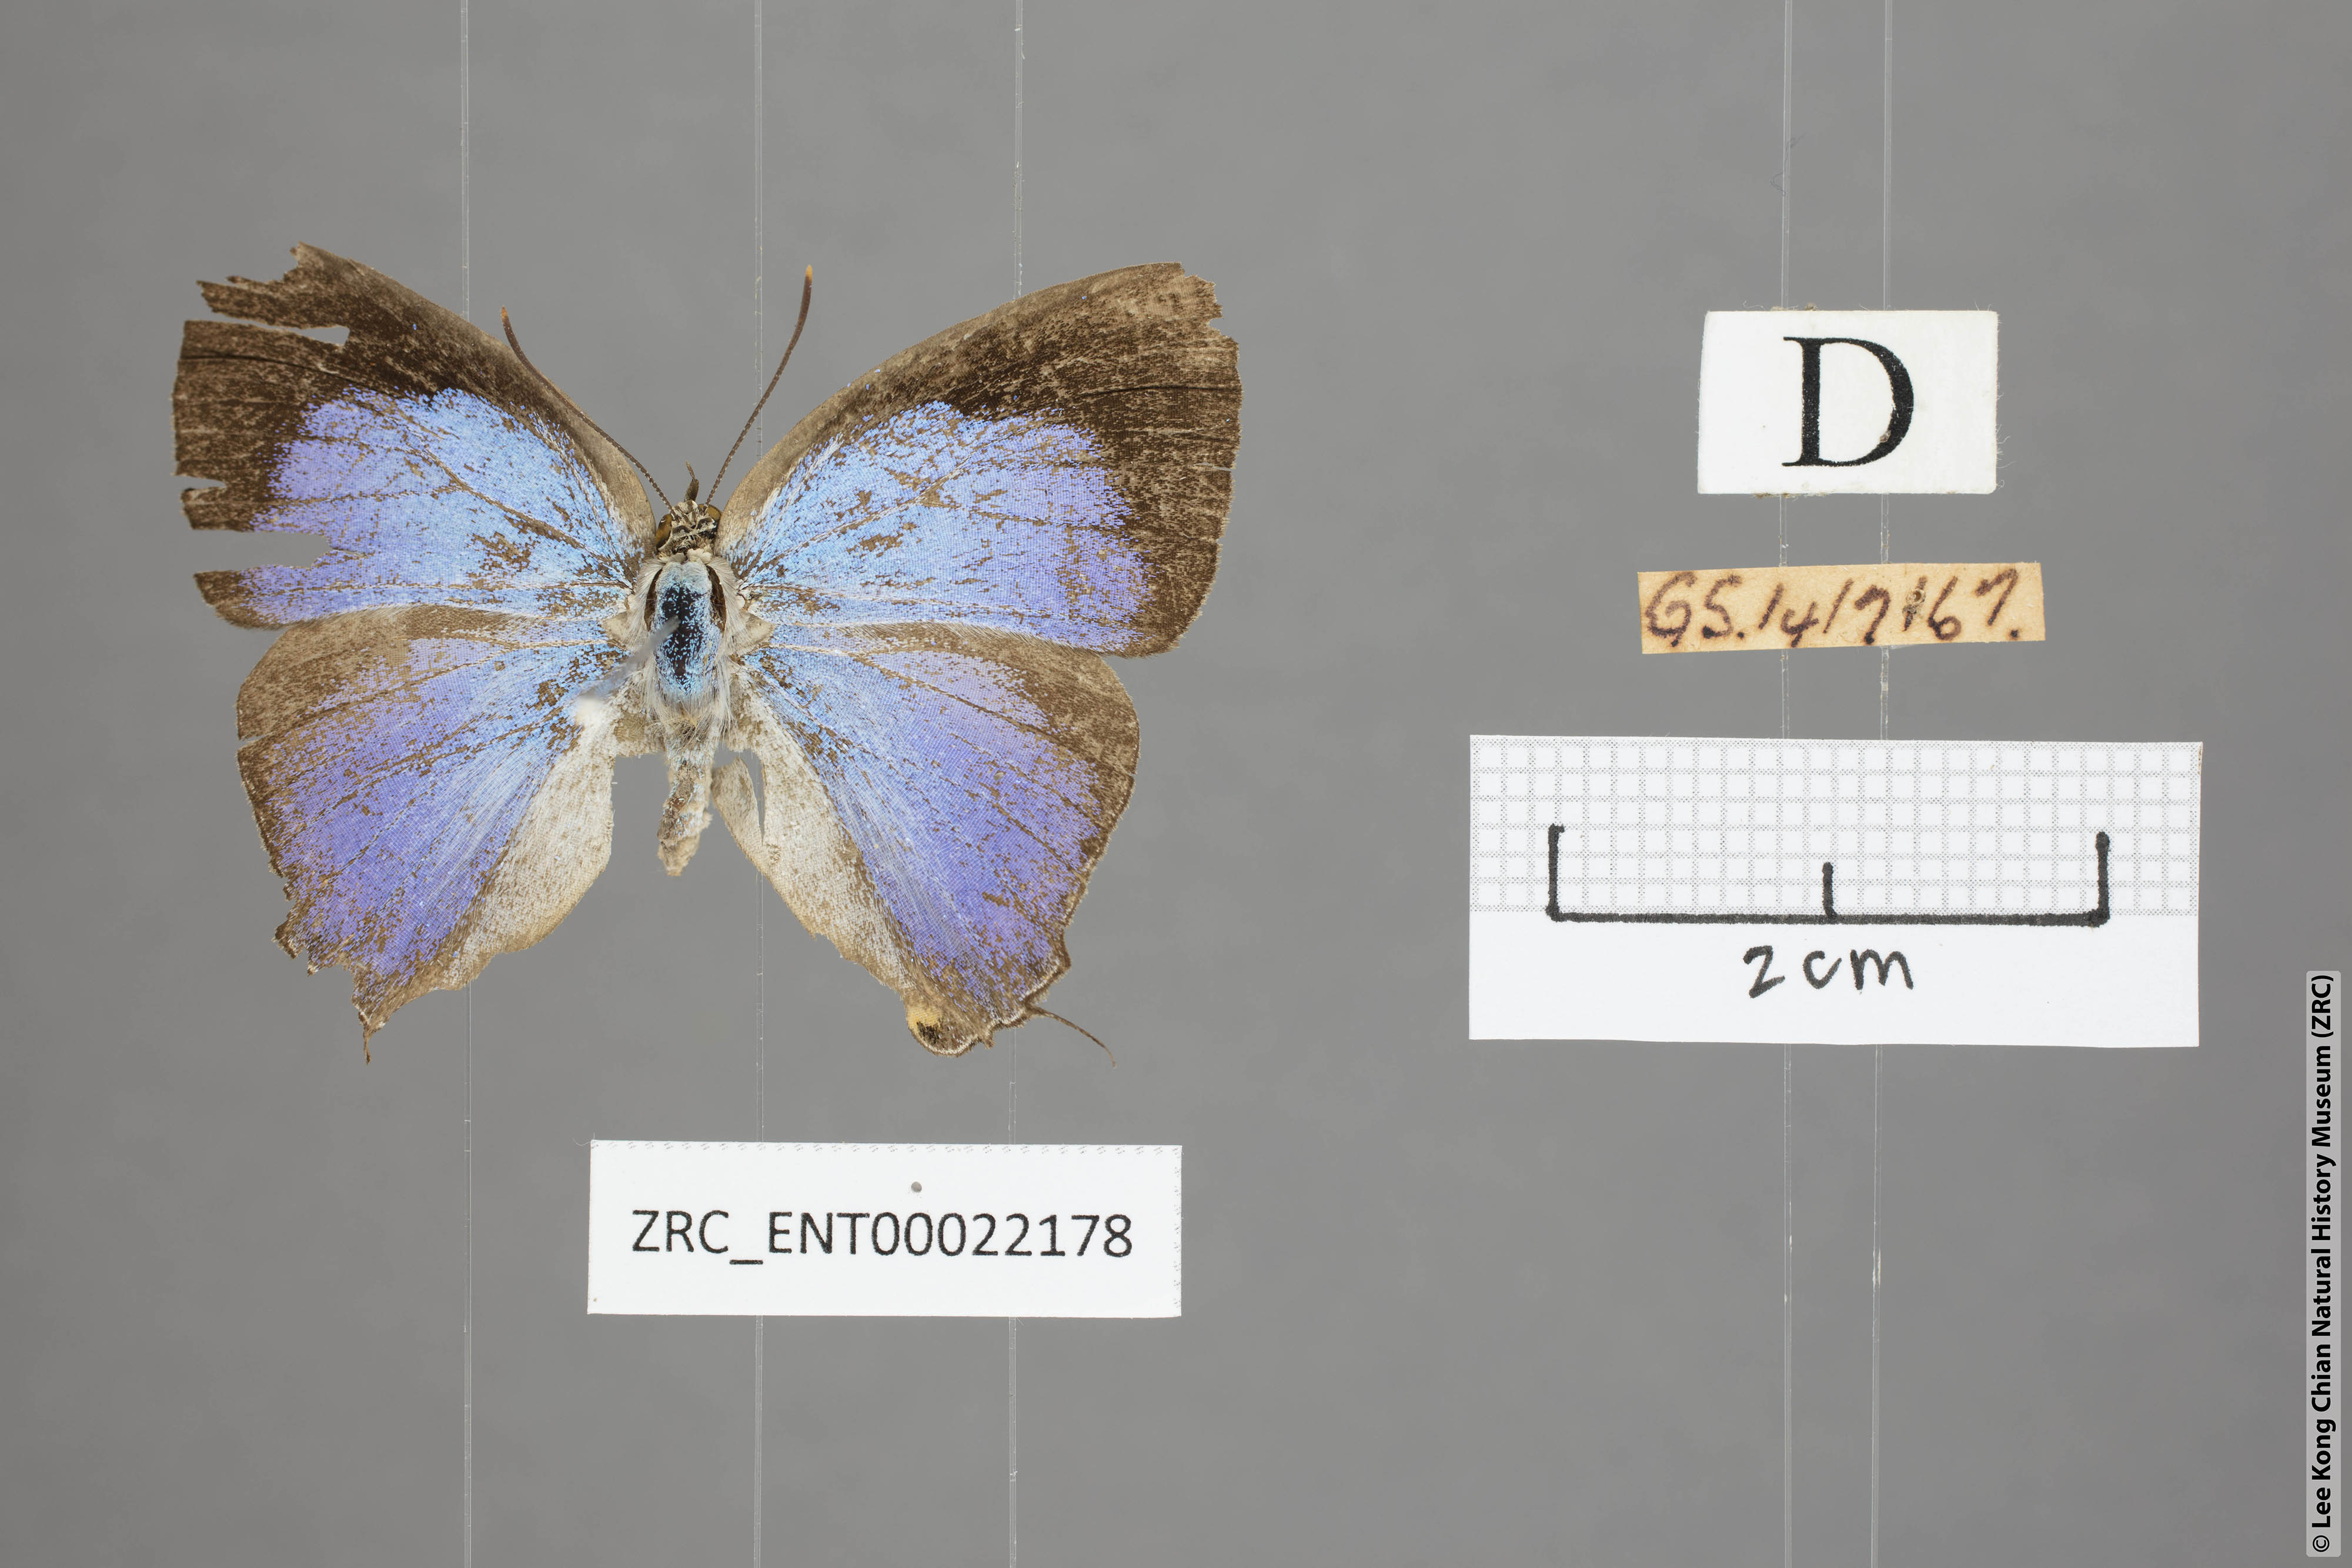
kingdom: Animalia
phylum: Arthropoda
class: Insecta
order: Lepidoptera
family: Lycaenidae
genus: Tajuria
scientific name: Tajuria deudaix
